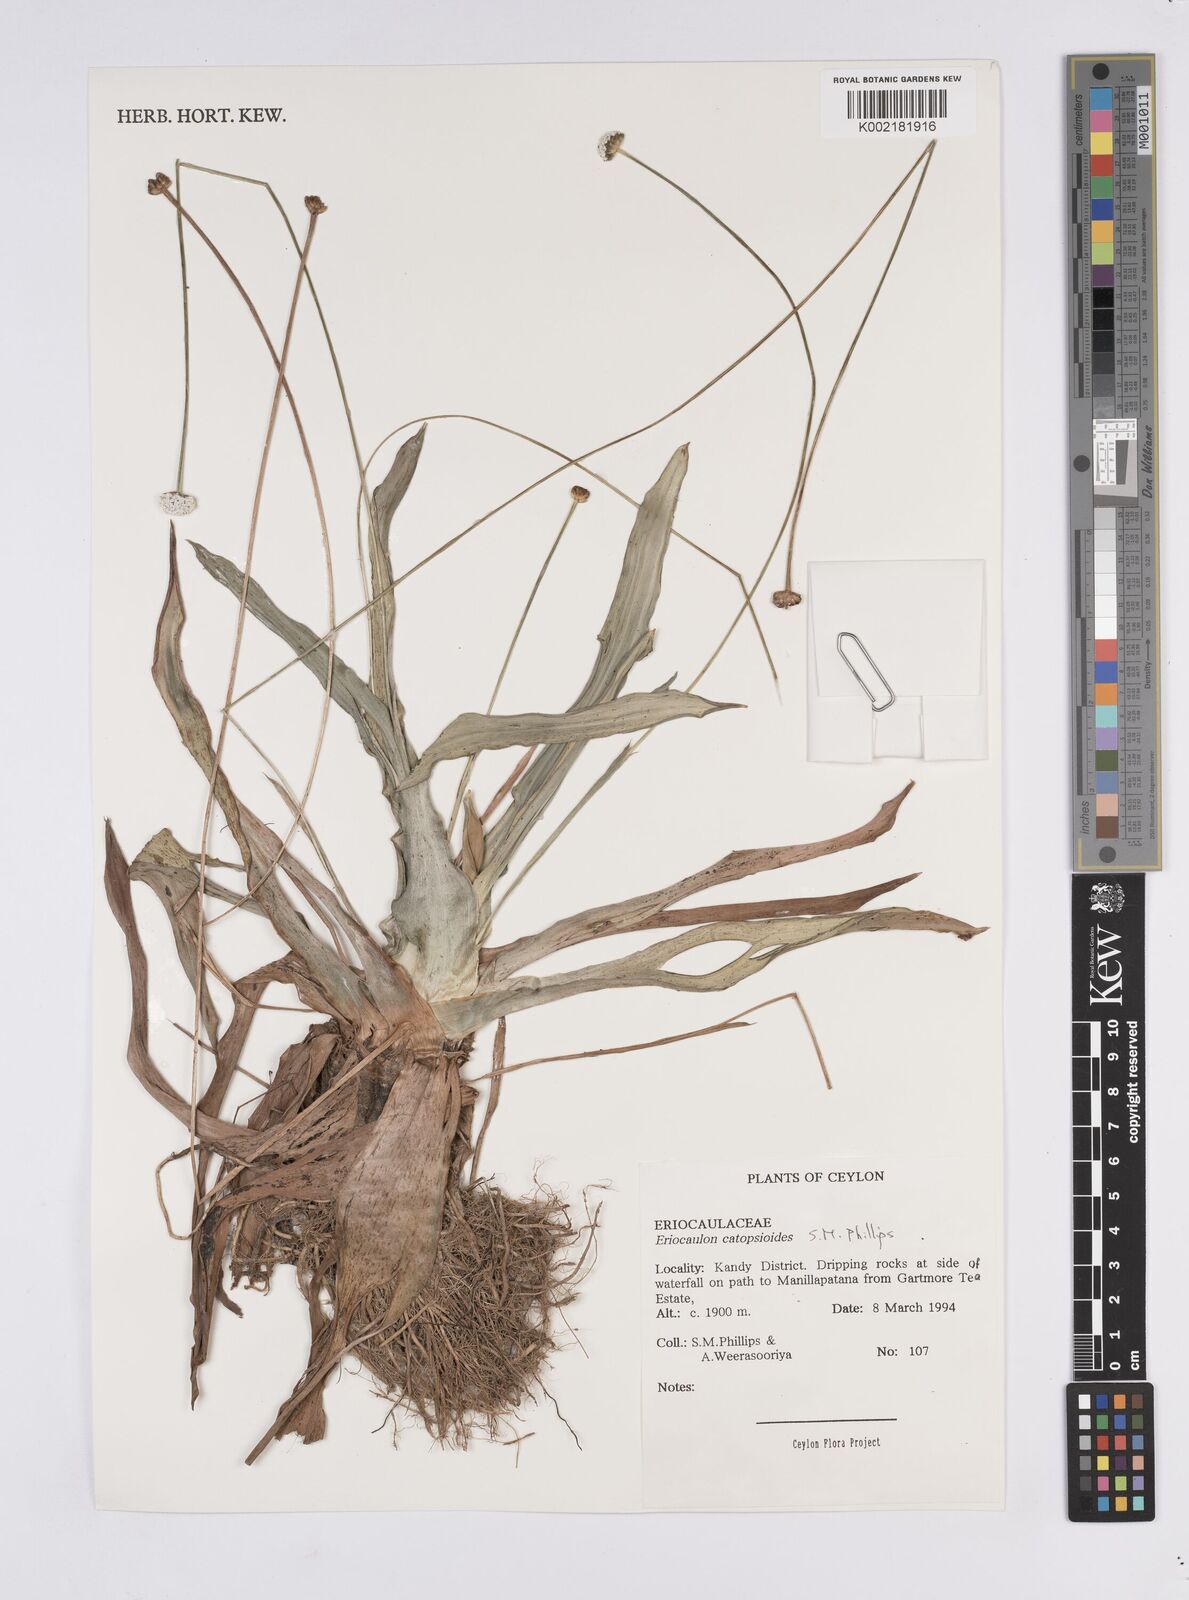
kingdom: Plantae
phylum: Tracheophyta
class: Liliopsida
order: Poales
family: Eriocaulaceae
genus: Eriocaulon
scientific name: Eriocaulon catopsioides
